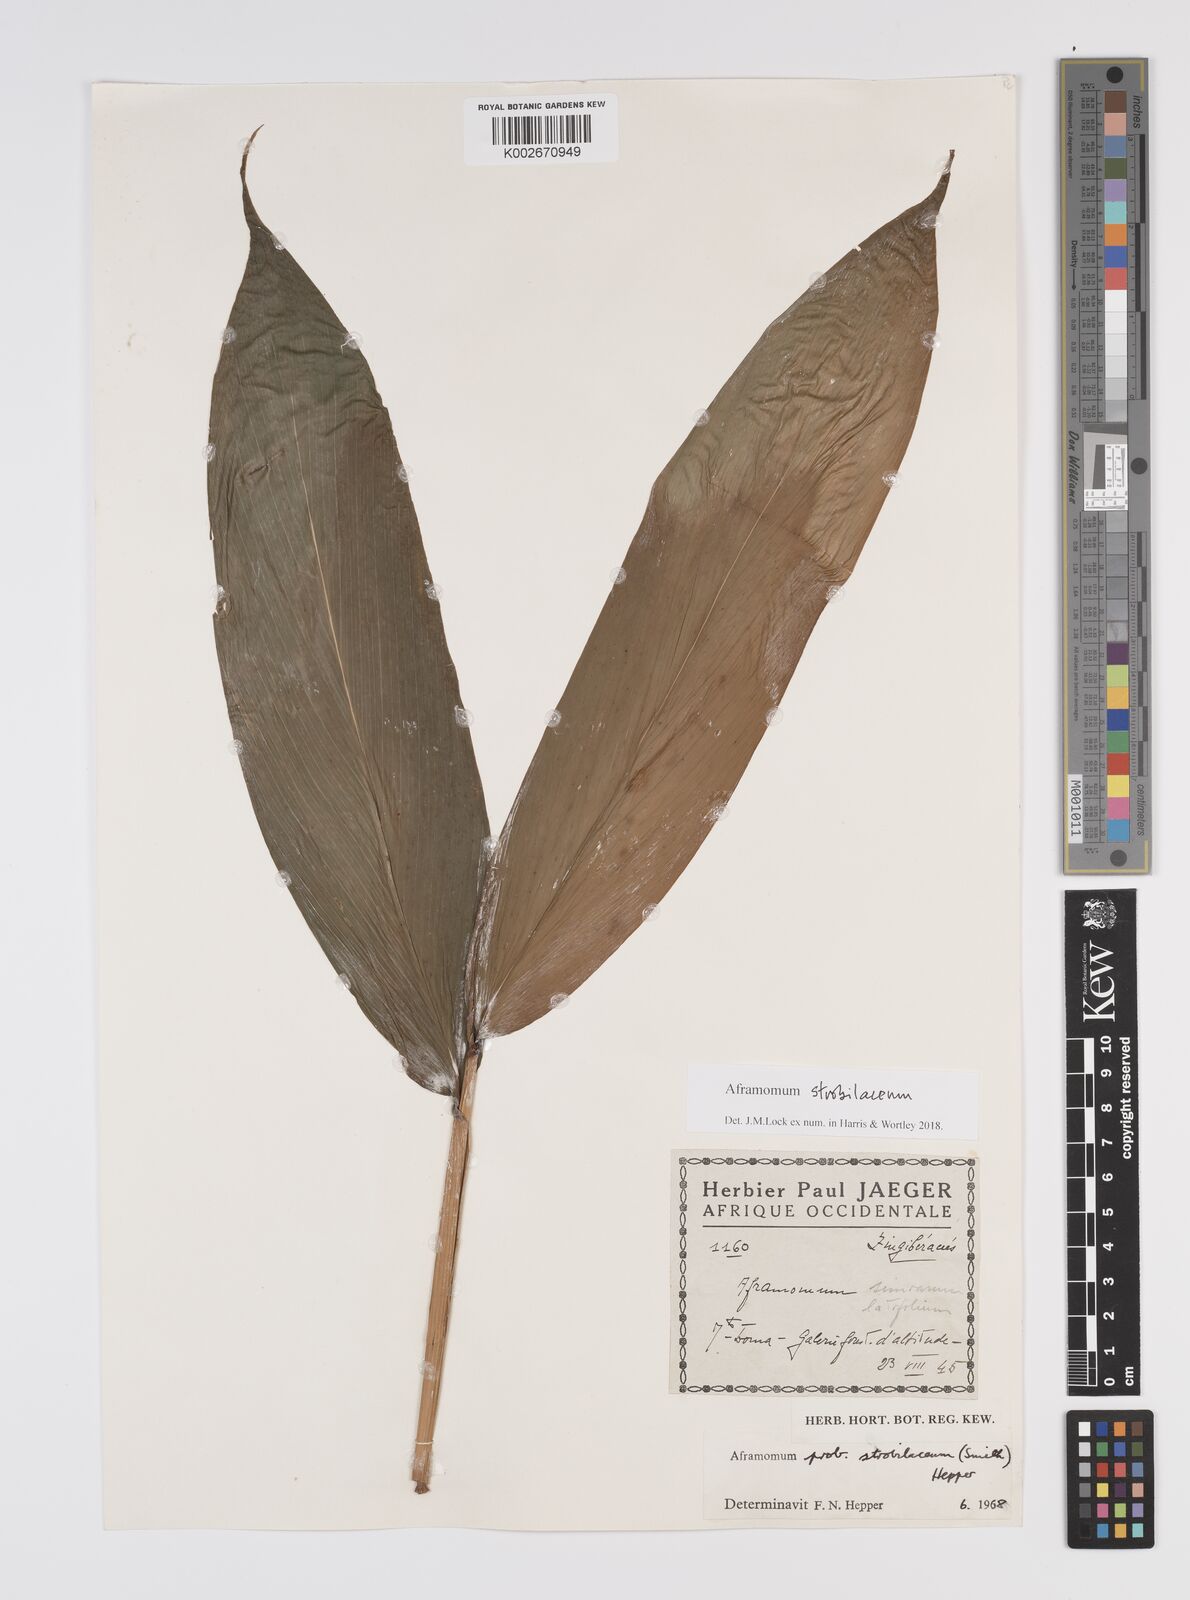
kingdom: Plantae
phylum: Tracheophyta
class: Liliopsida
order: Zingiberales
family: Zingiberaceae
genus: Aframomum
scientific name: Aframomum strobilaceum
